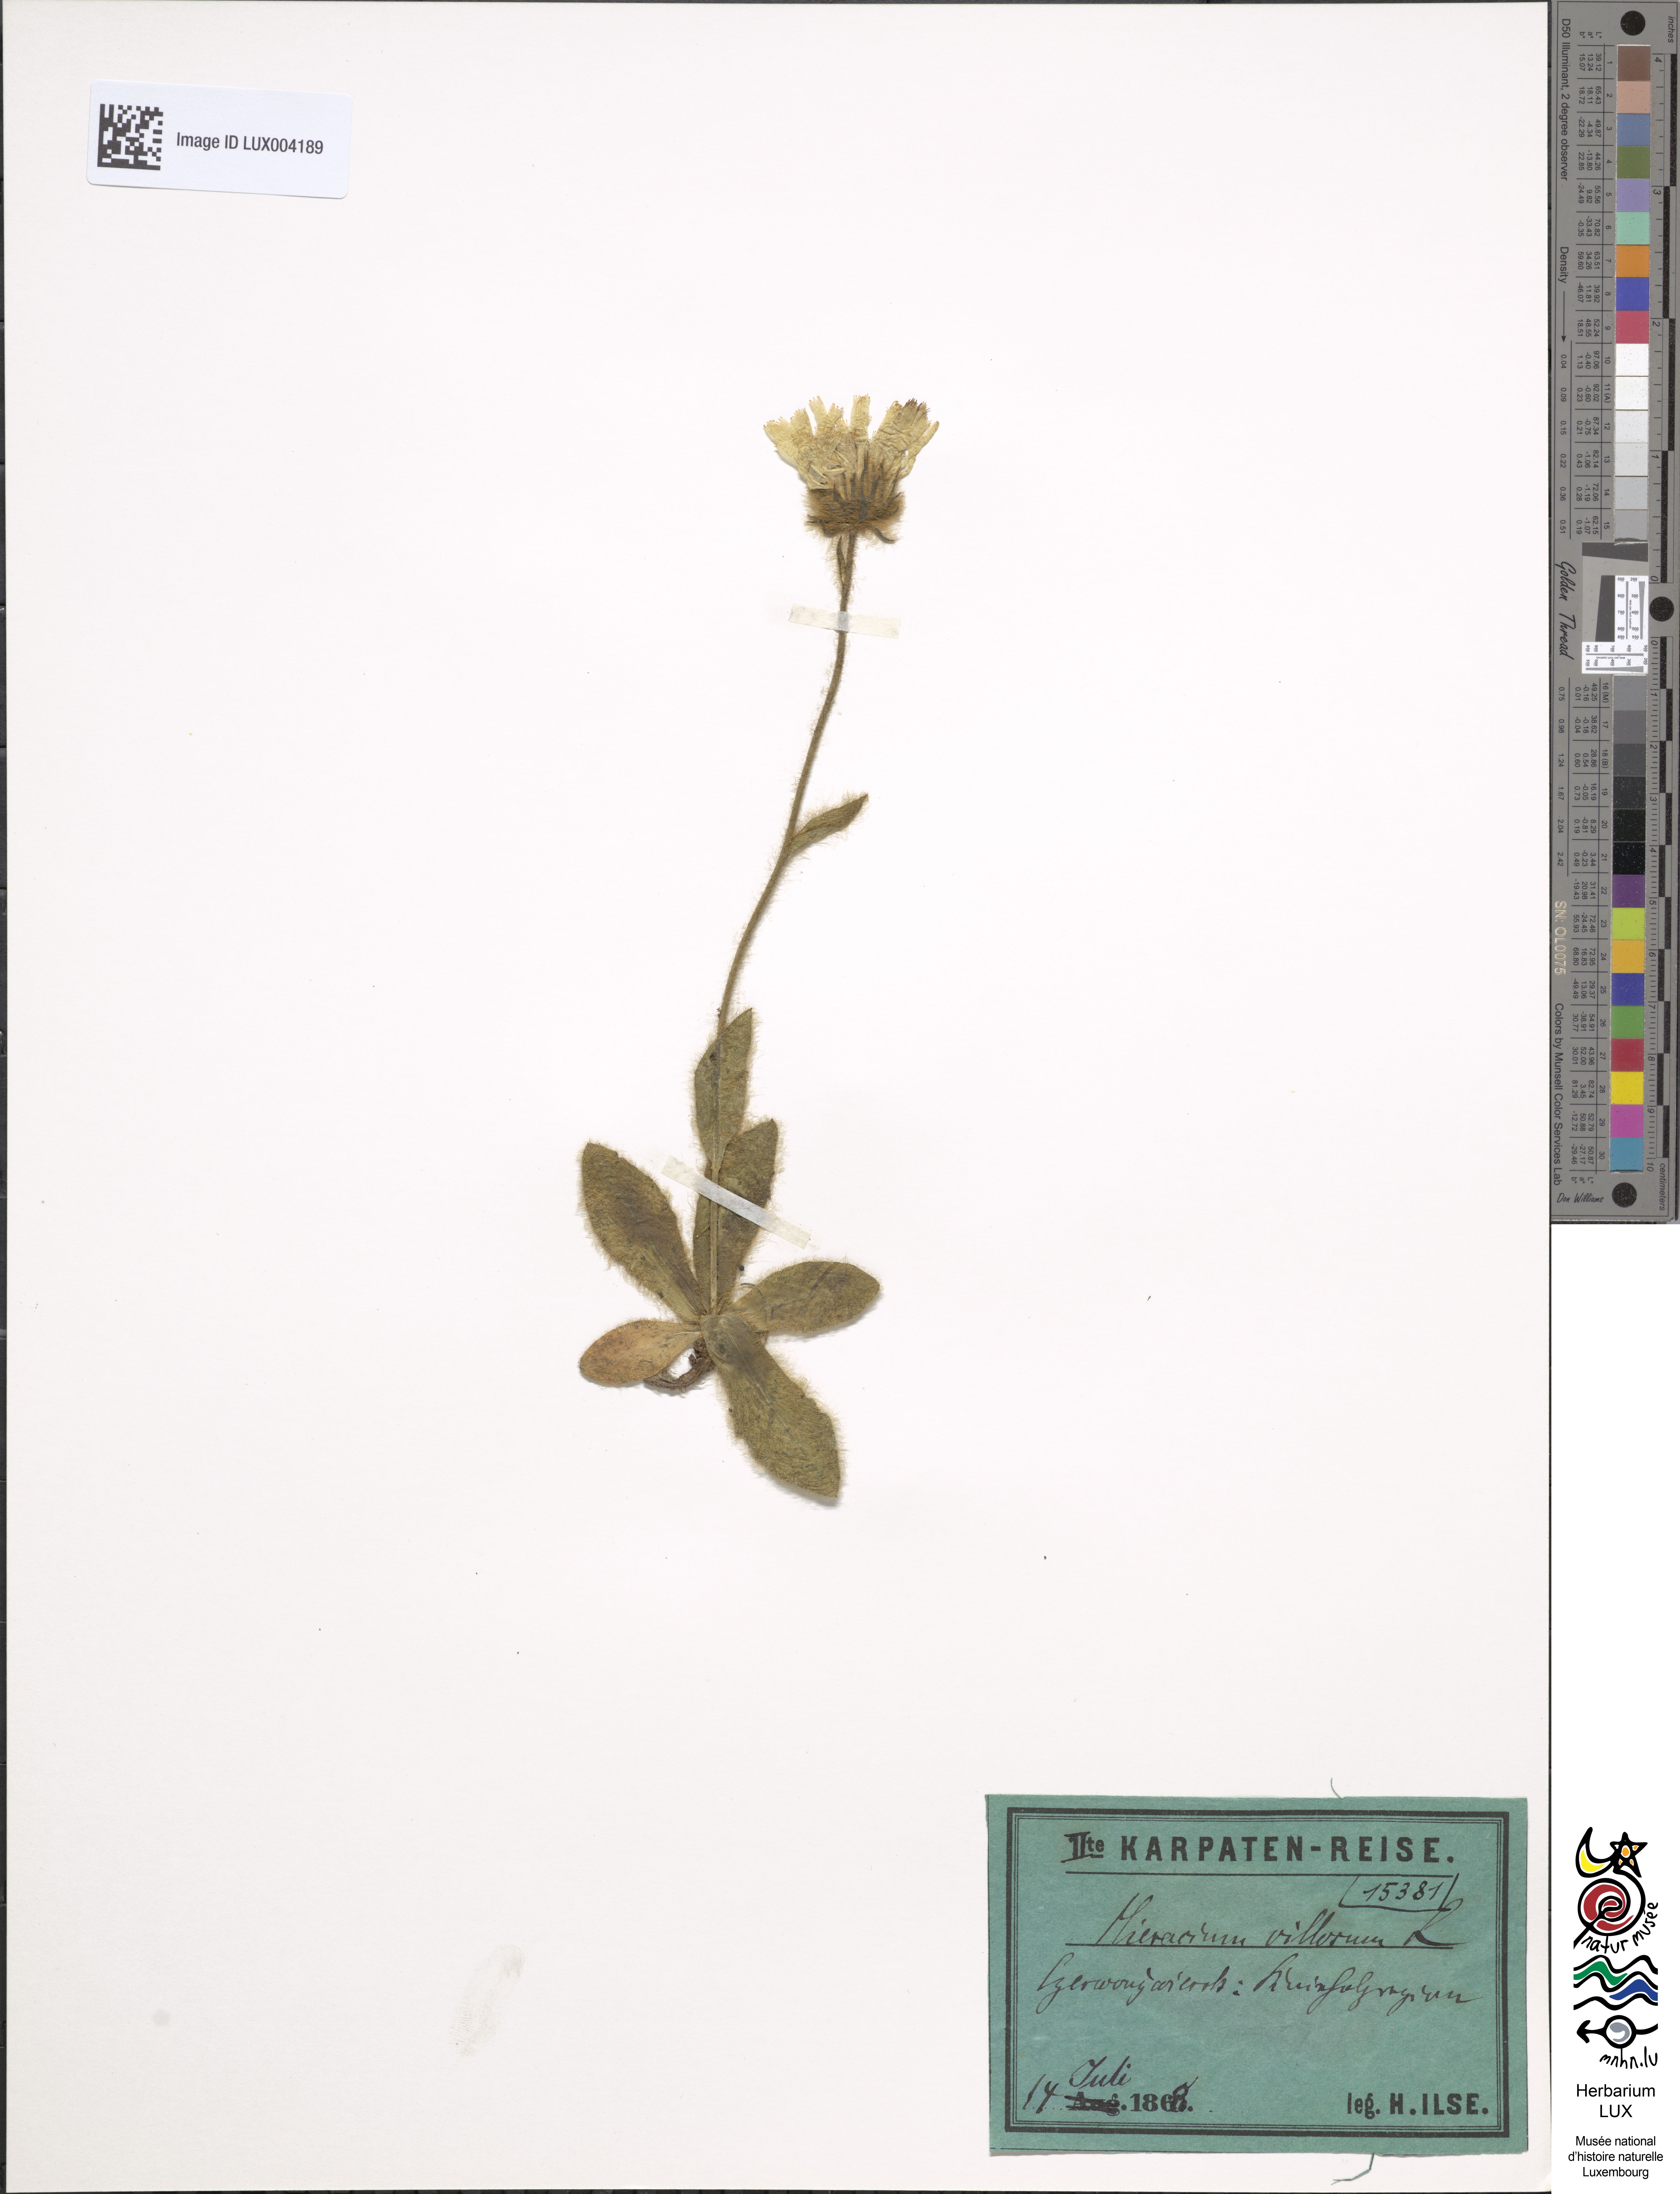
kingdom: Plantae
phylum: Tracheophyta
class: Magnoliopsida
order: Asterales
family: Asteraceae
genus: Hieracium
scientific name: Hieracium villosum
